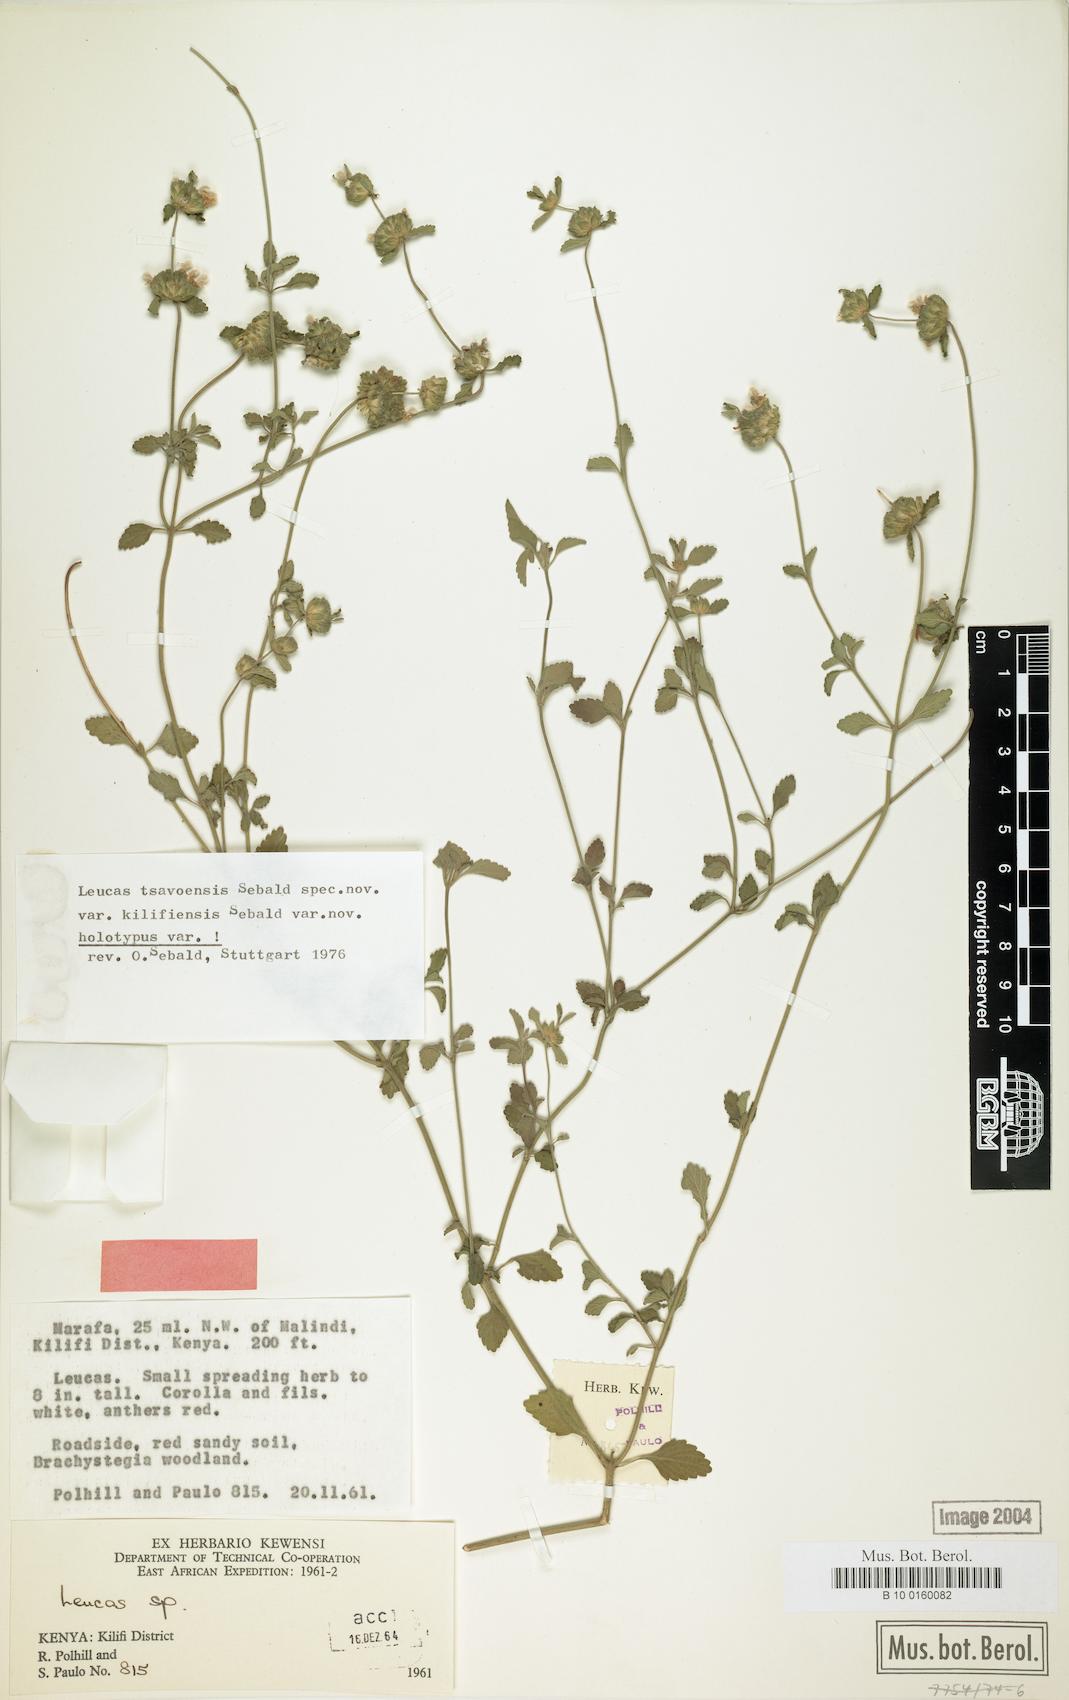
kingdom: Plantae
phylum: Tracheophyta
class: Magnoliopsida
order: Lamiales
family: Lamiaceae
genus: Leucas
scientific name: Leucas tsavoensis
